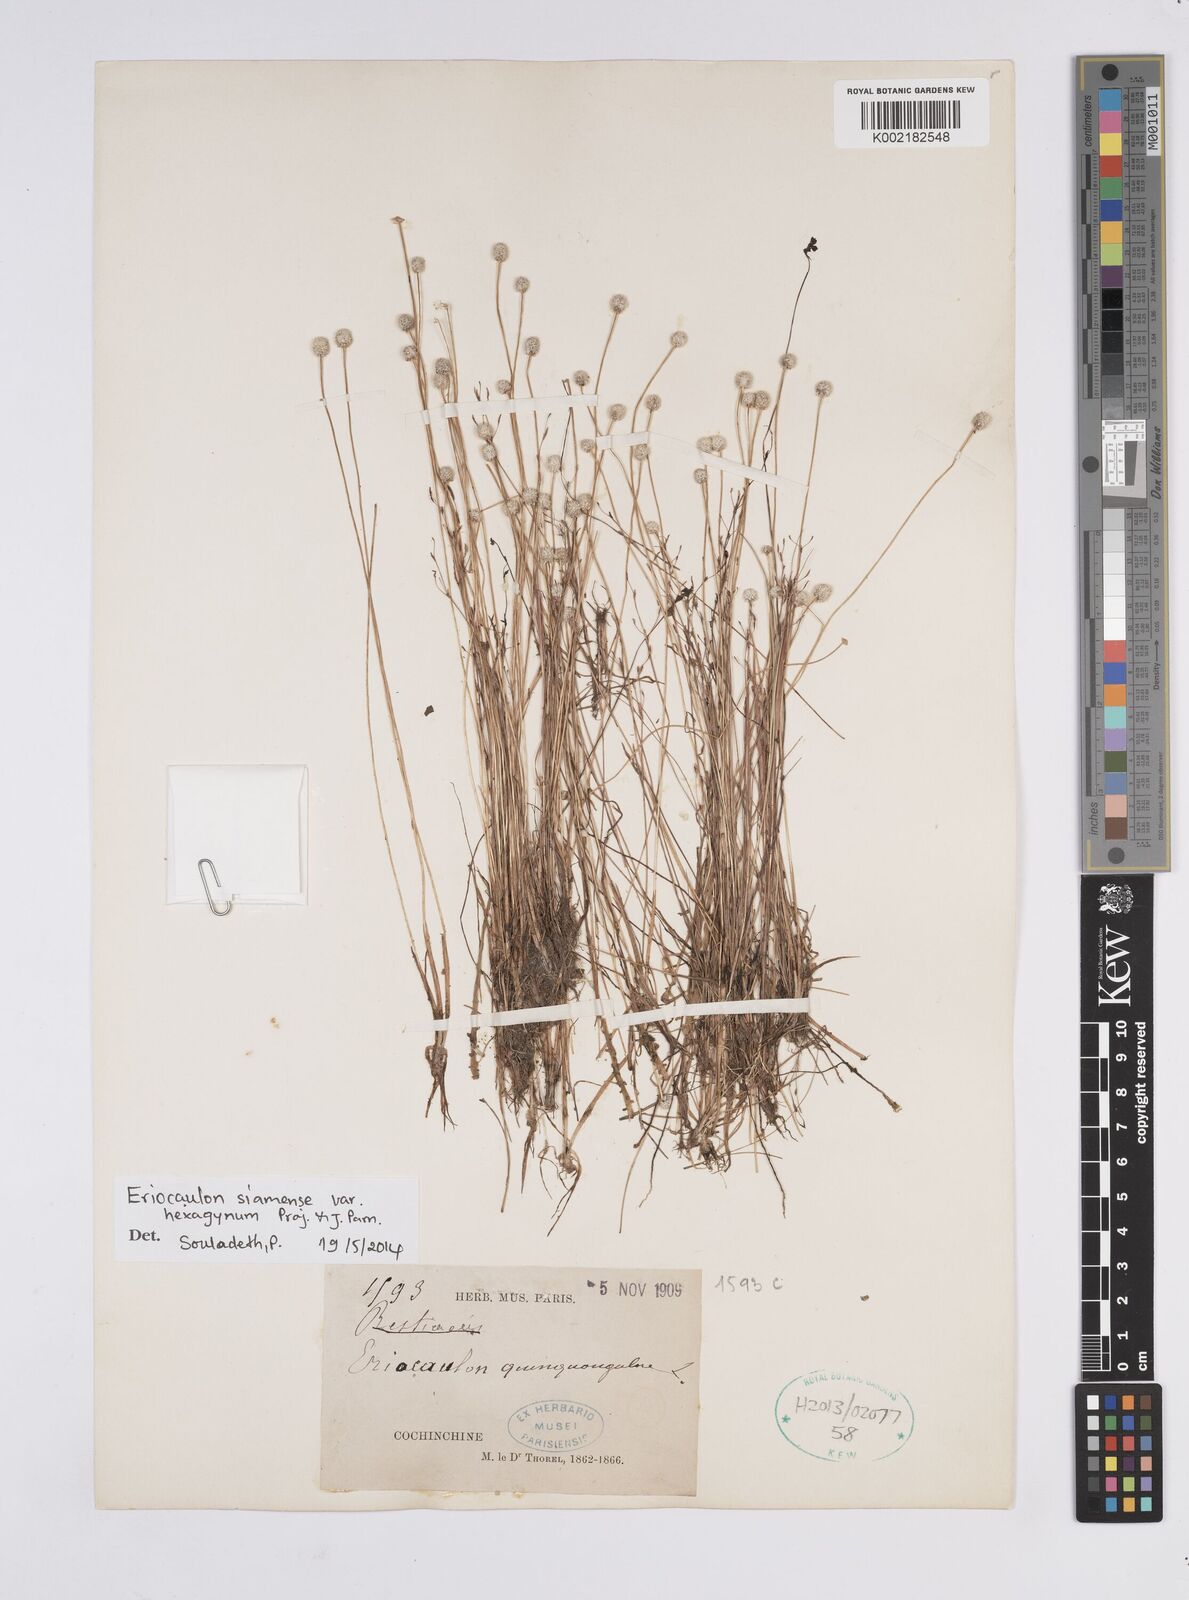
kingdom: Plantae
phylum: Tracheophyta
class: Liliopsida
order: Poales
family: Eriocaulaceae
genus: Eriocaulon
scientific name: Eriocaulon siamense
